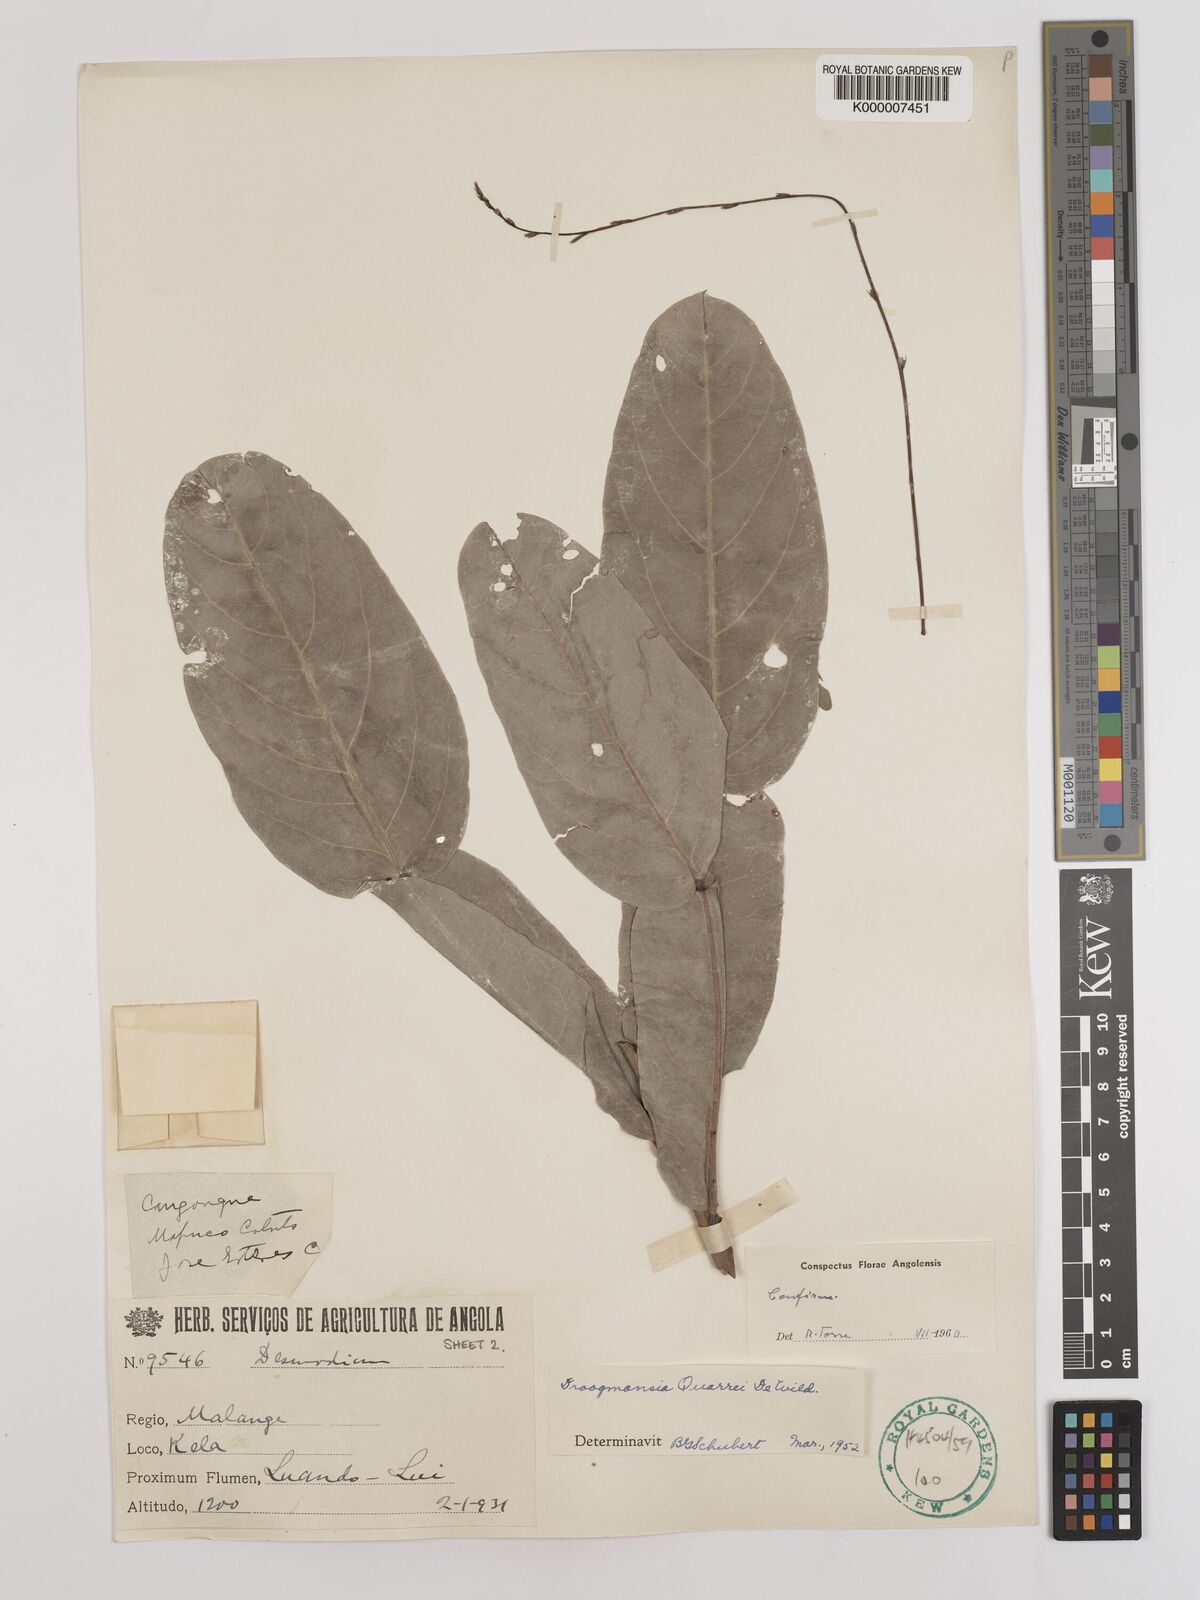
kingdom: Plantae
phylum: Tracheophyta
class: Magnoliopsida
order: Fabales
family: Fabaceae
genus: Droogmansia
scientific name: Droogmansia pteropus
